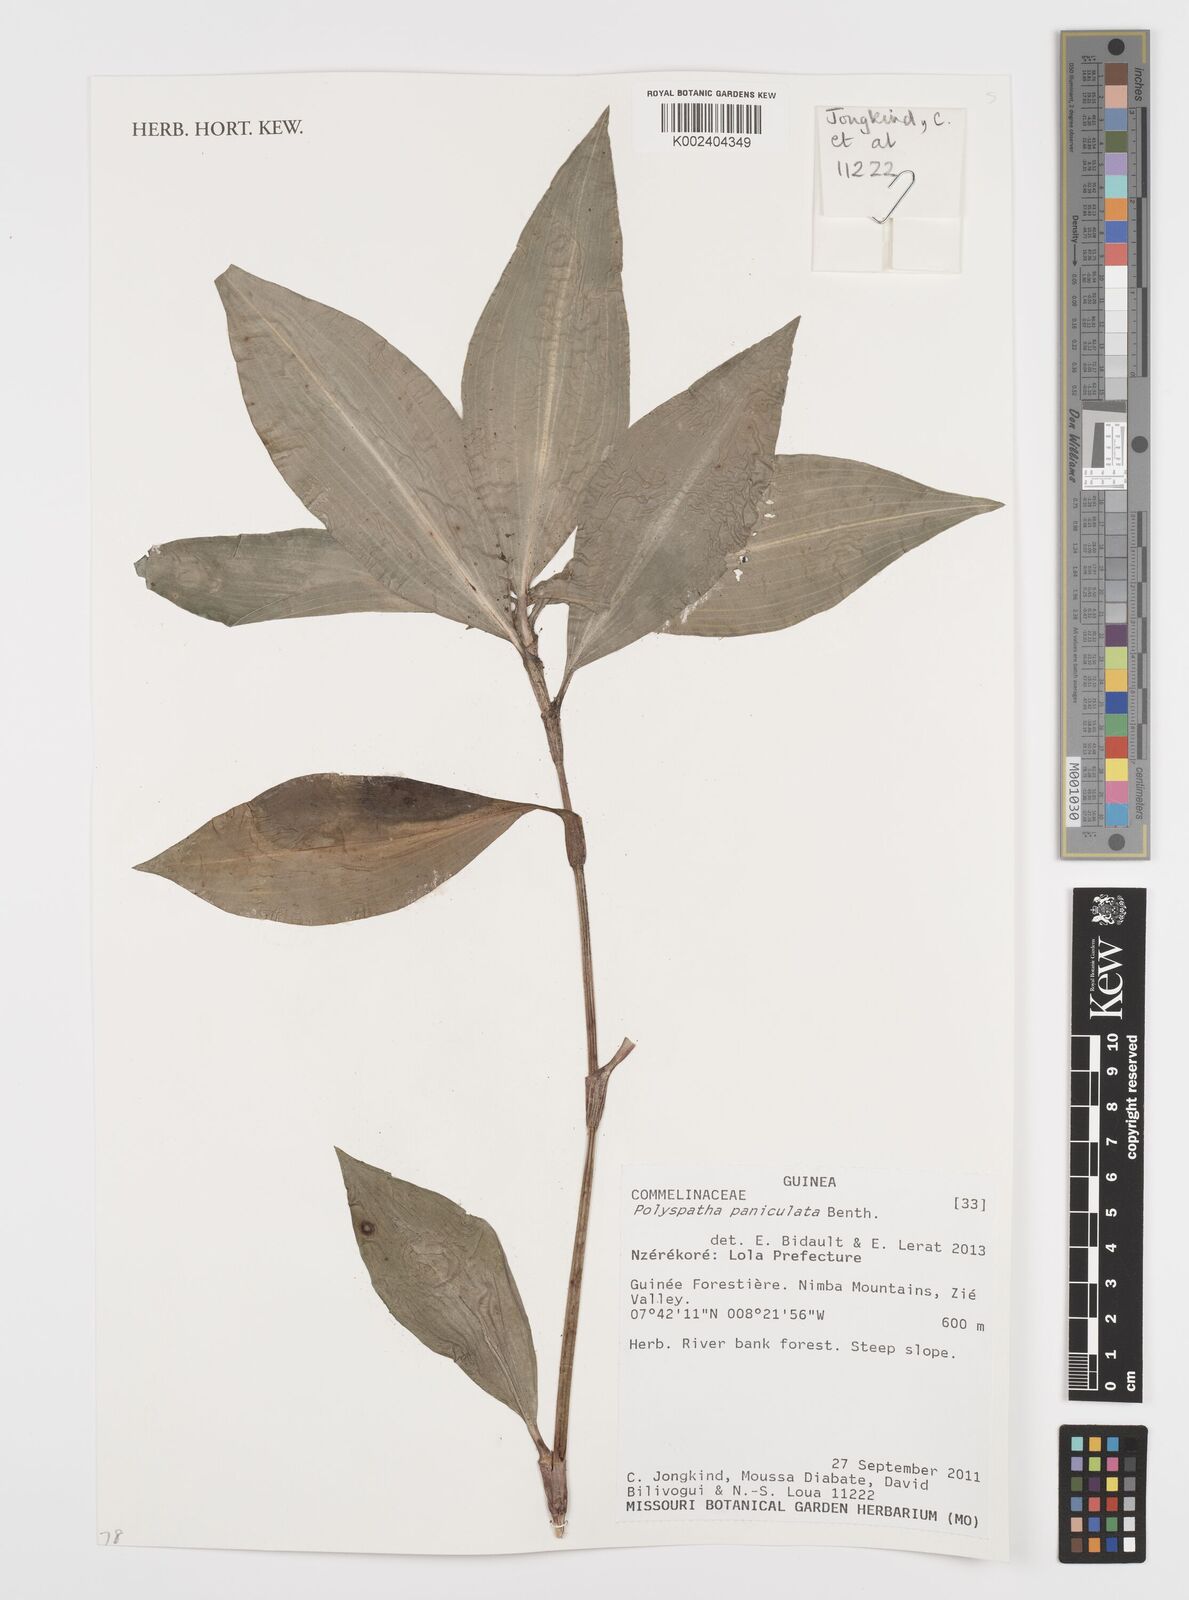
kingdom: Plantae
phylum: Tracheophyta
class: Liliopsida
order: Commelinales
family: Commelinaceae
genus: Polyspatha
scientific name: Polyspatha paniculata
